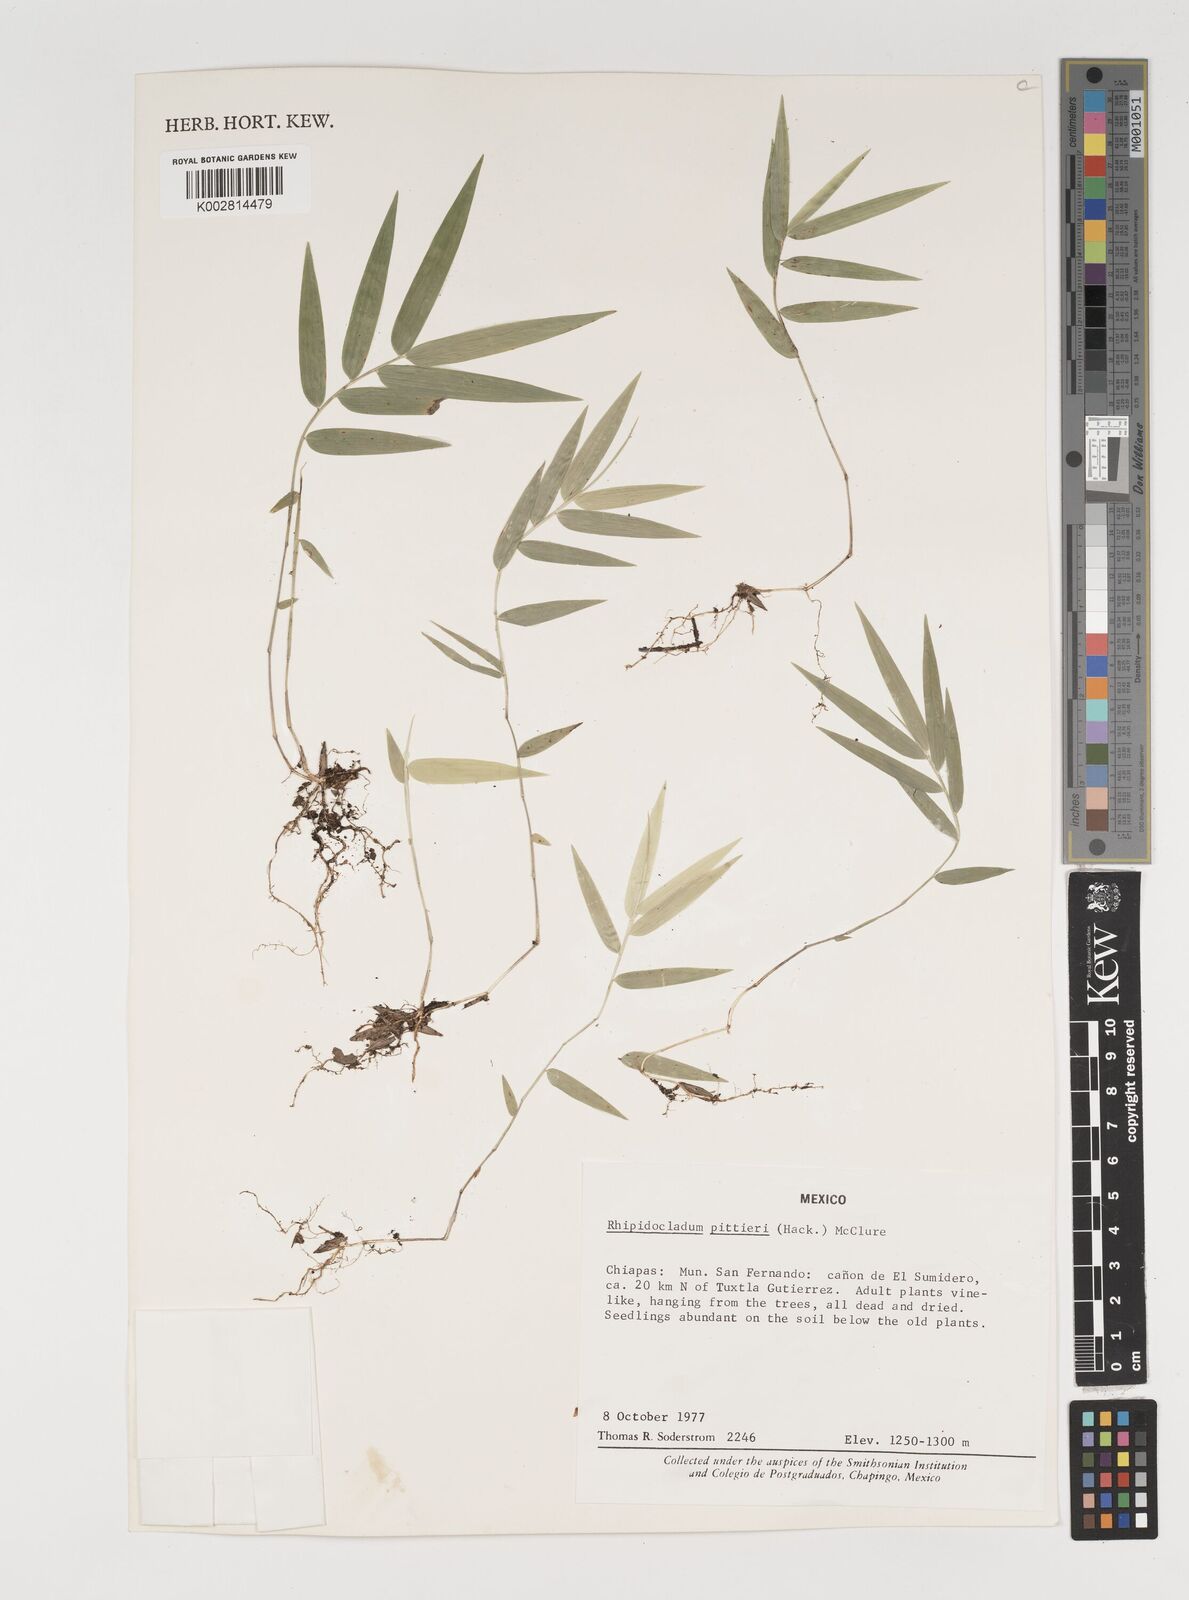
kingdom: Plantae
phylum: Tracheophyta
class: Liliopsida
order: Poales
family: Poaceae
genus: Rhipidocladum
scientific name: Rhipidocladum pittieri
